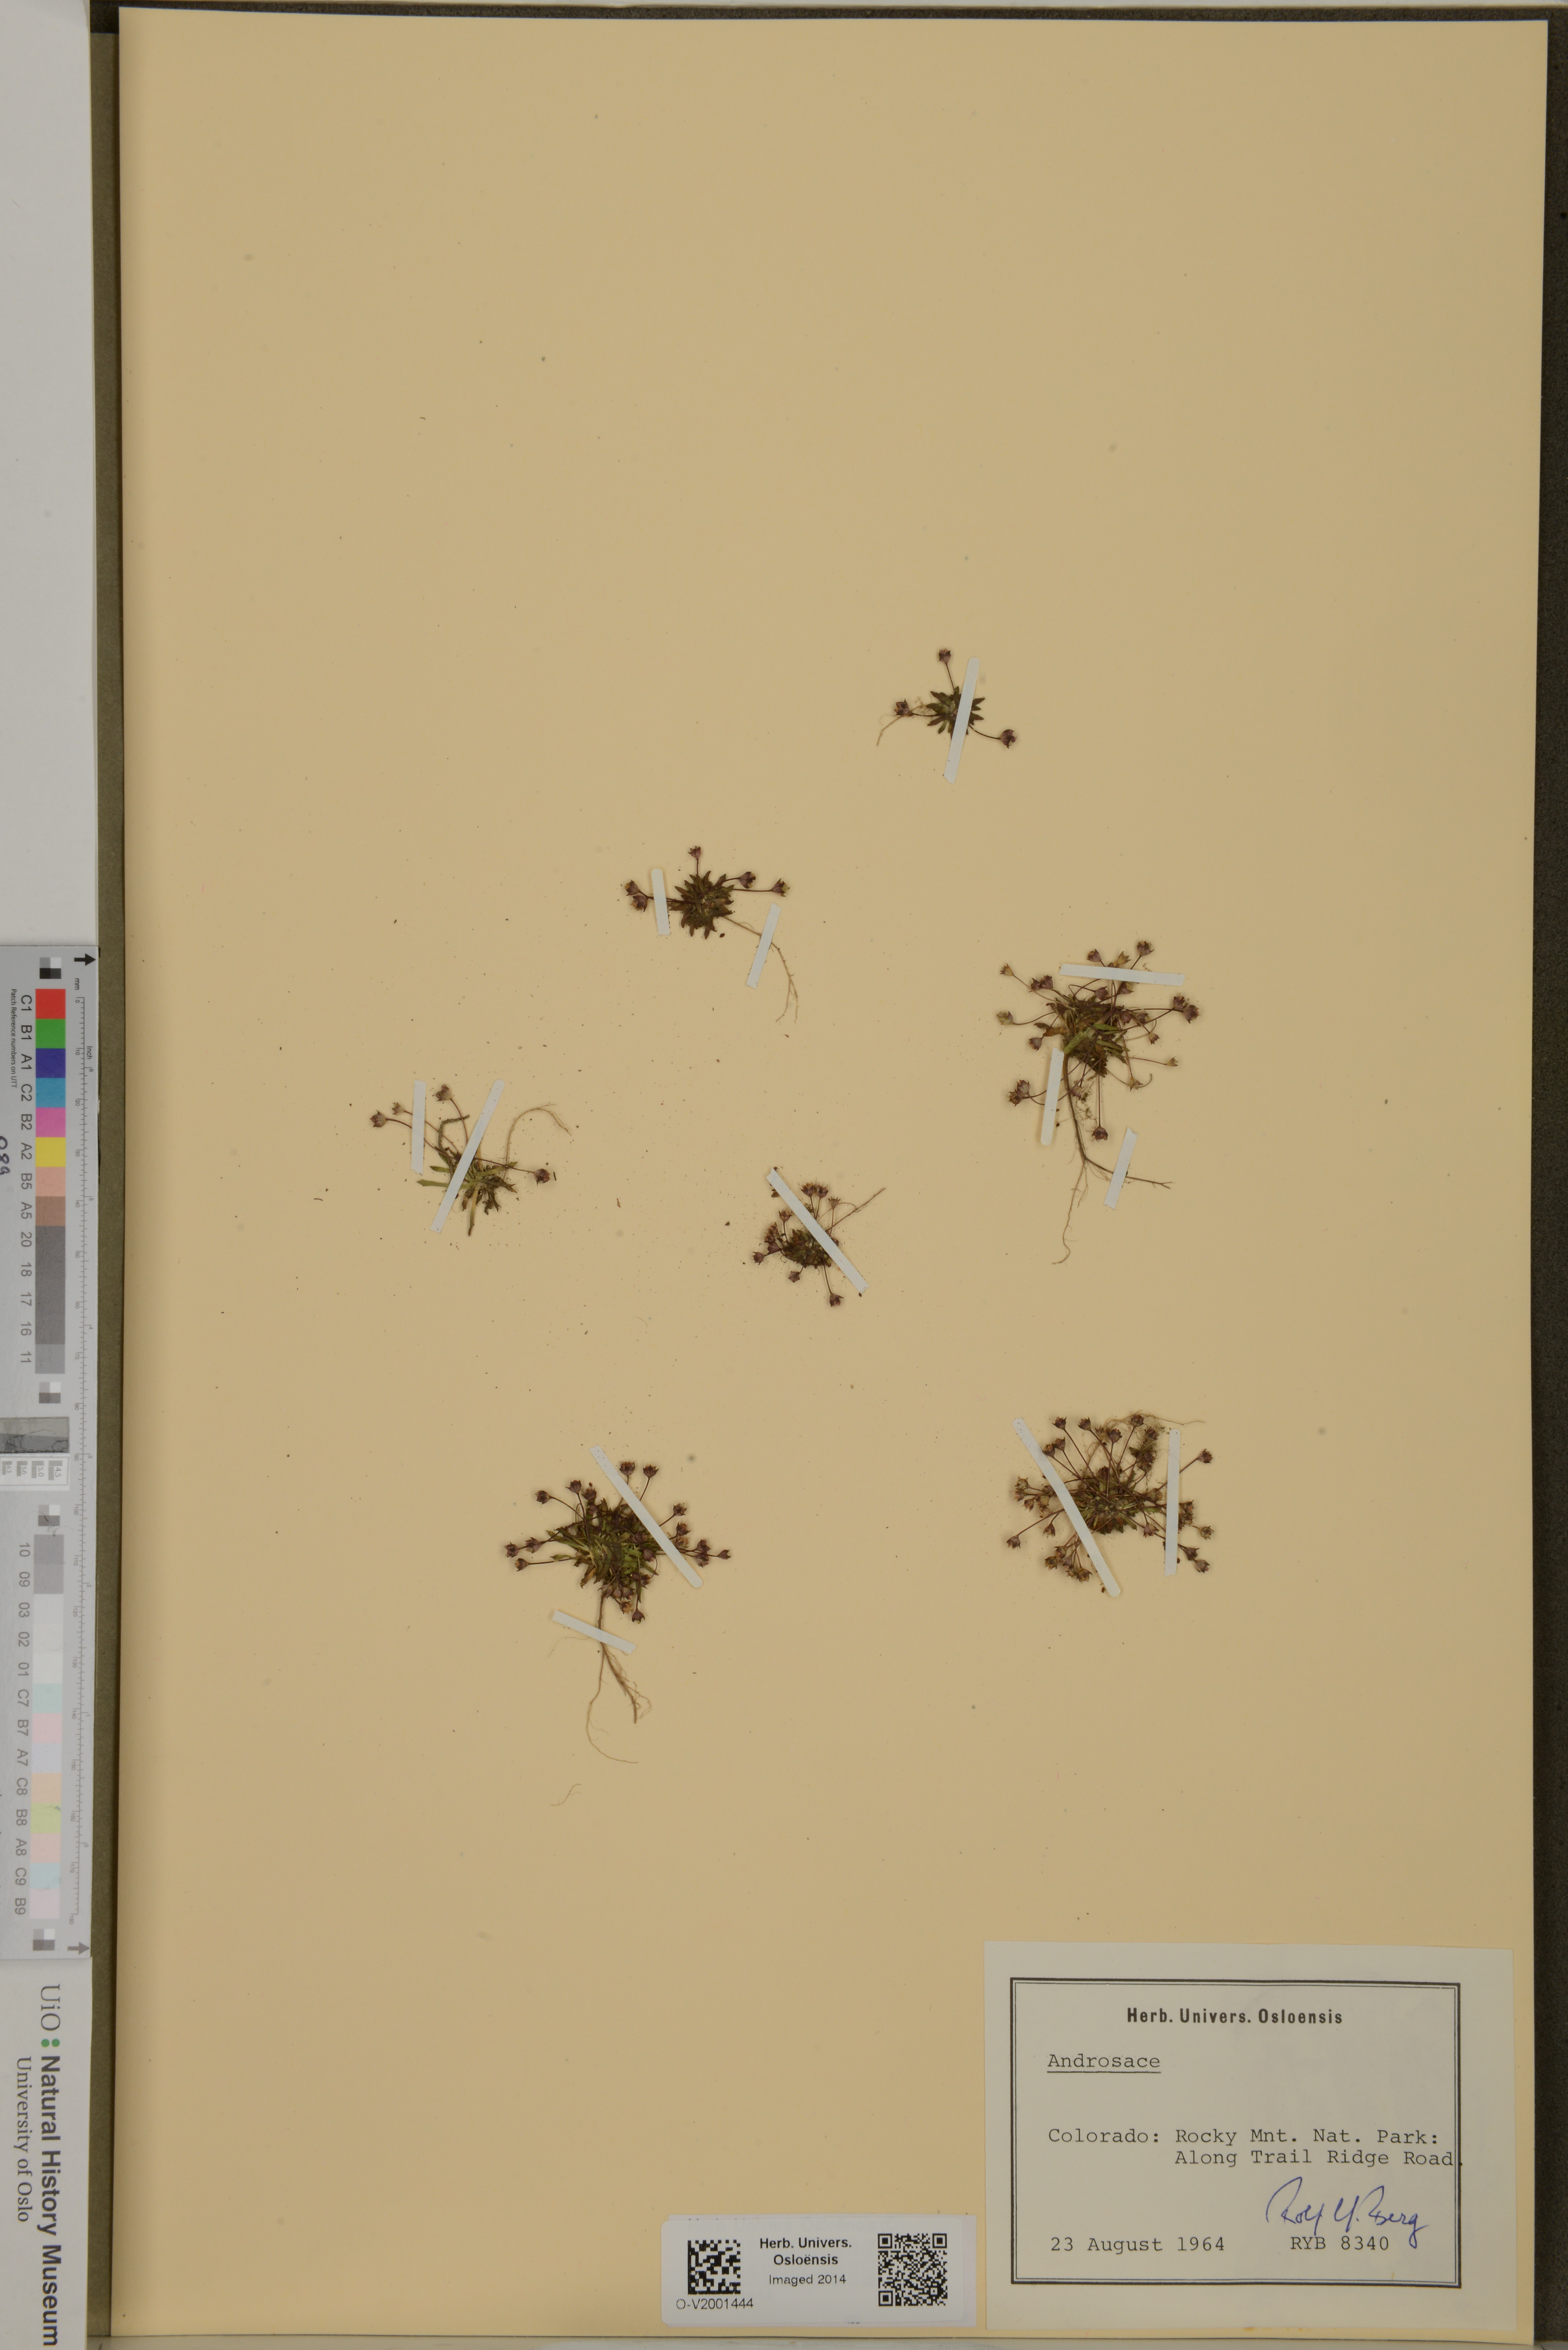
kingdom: Plantae
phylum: Tracheophyta
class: Magnoliopsida
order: Ericales
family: Primulaceae
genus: Androsace
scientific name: Androsace
